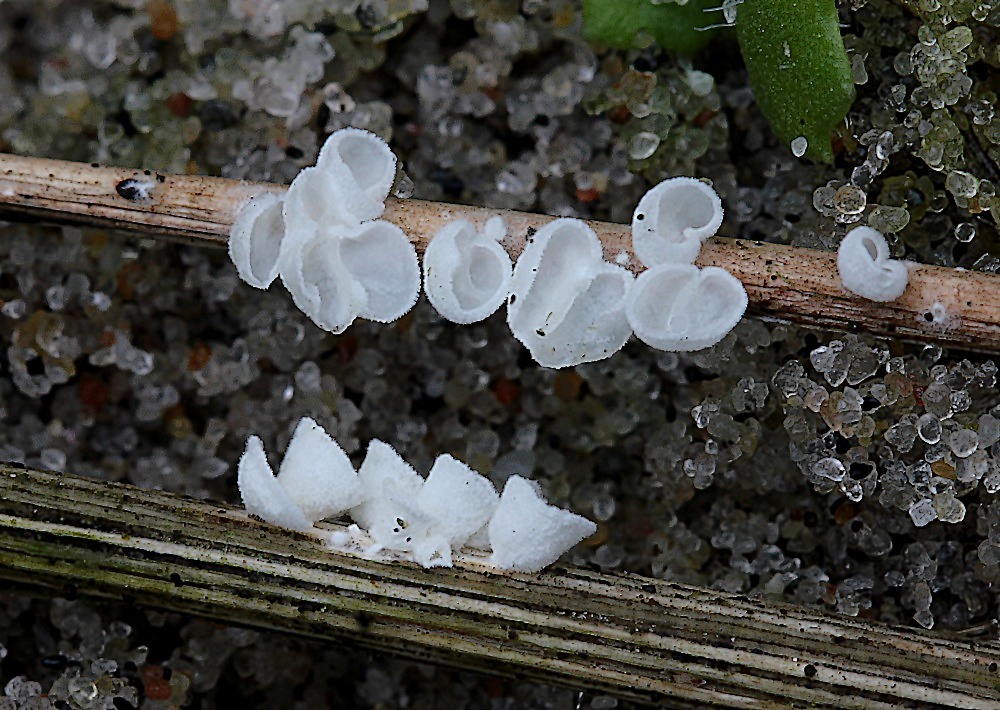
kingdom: Fungi
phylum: Basidiomycota
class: Agaricomycetes
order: Agaricales
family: Tricholomataceae
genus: Cellypha
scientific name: Cellypha goldbachii
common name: dråbeskål
